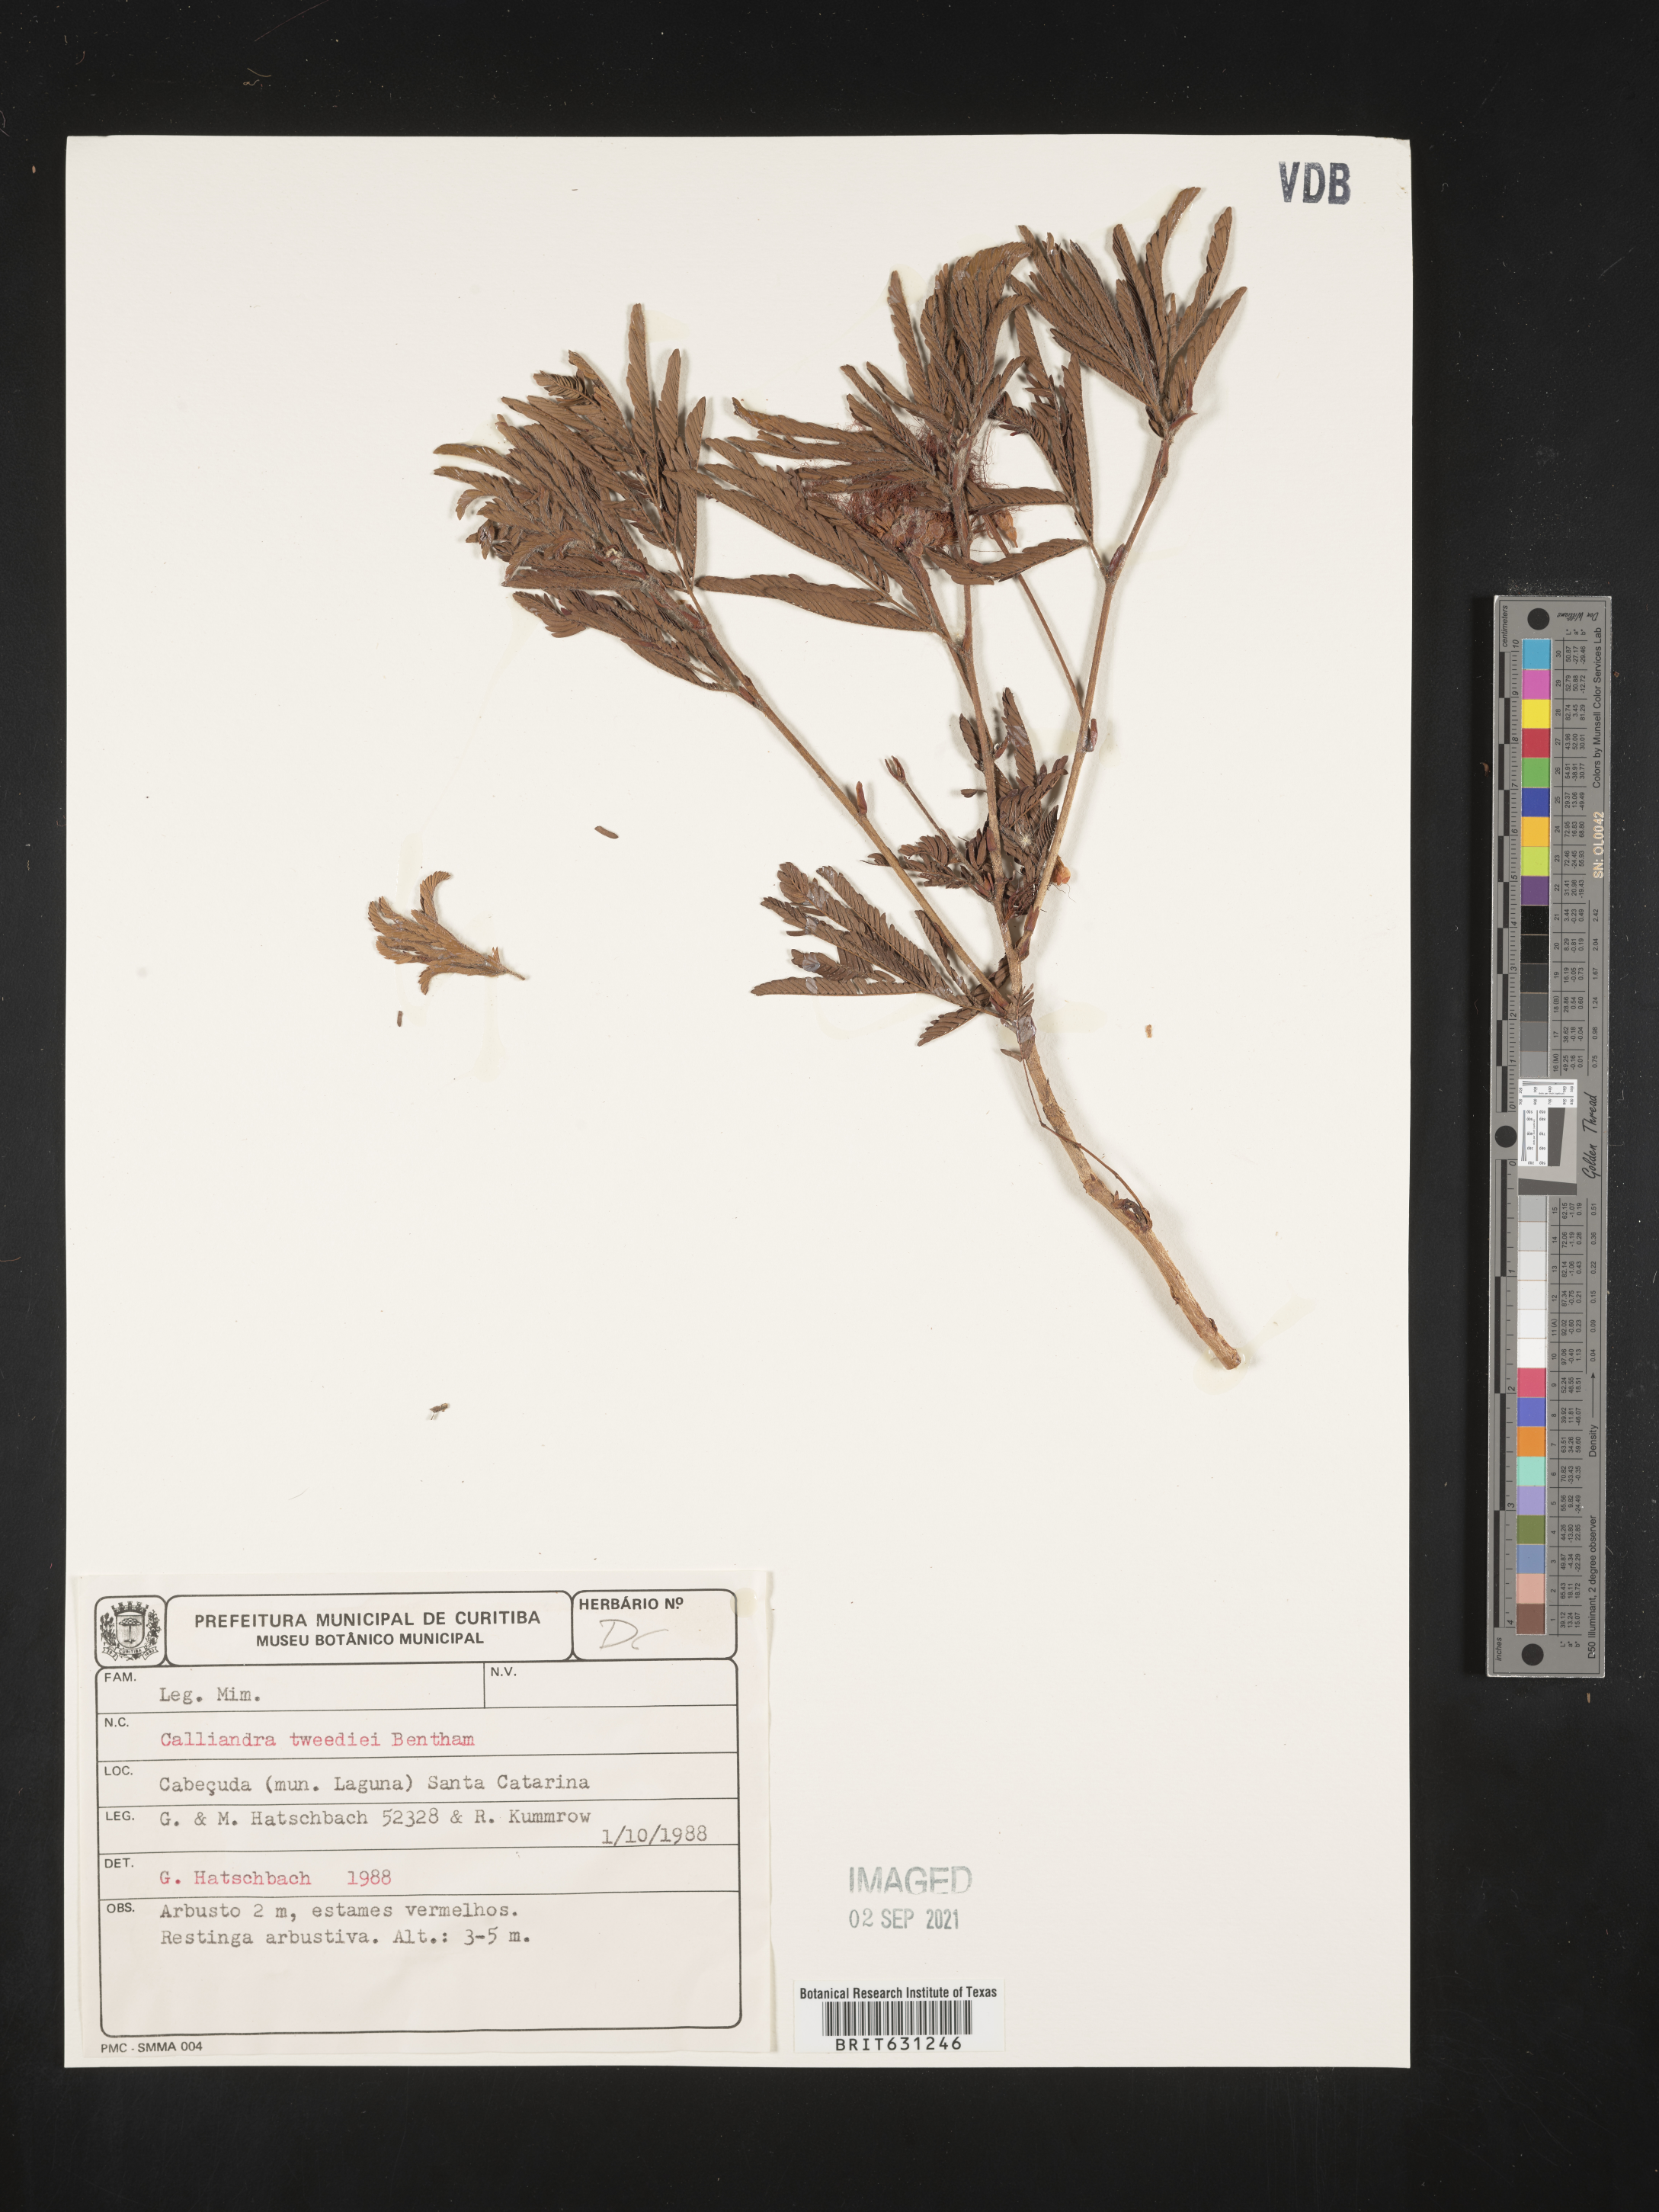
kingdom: Plantae
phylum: Tracheophyta
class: Magnoliopsida
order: Fabales
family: Fabaceae
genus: Calliandra
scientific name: Calliandra tweedii
